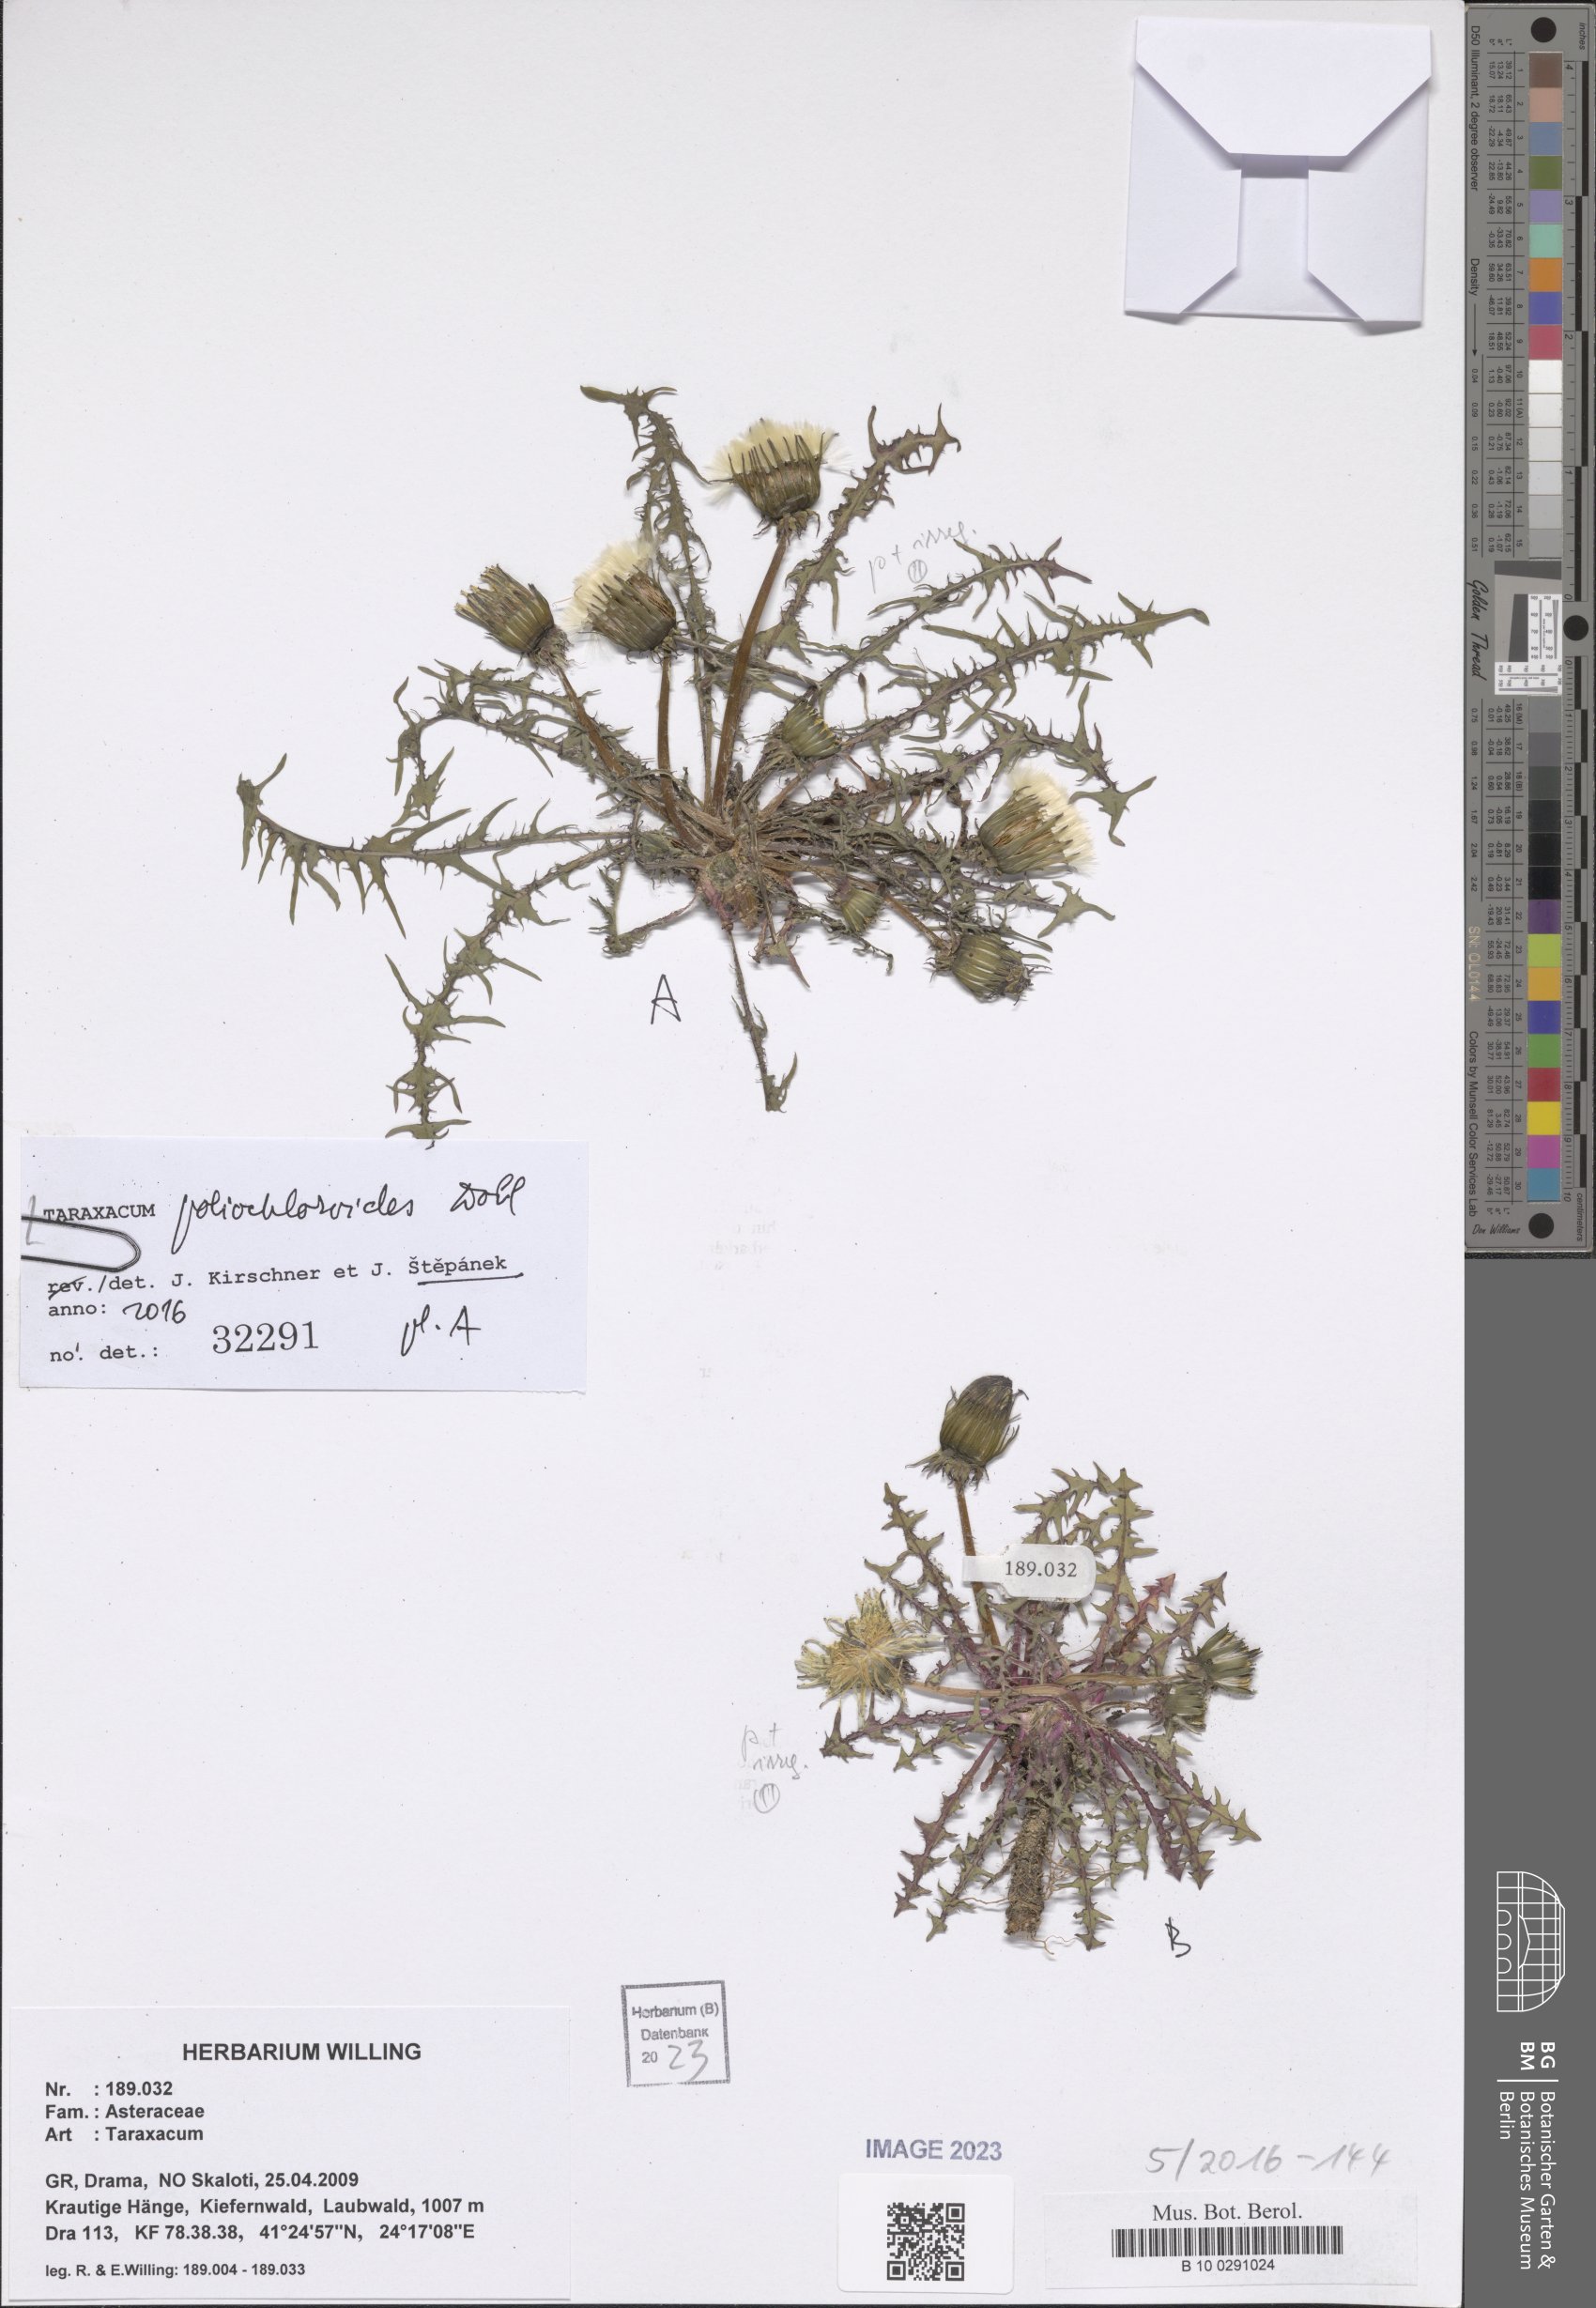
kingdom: Plantae
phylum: Tracheophyta
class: Magnoliopsida
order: Asterales
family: Asteraceae
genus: Taraxacum
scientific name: Taraxacum poliochloroides
